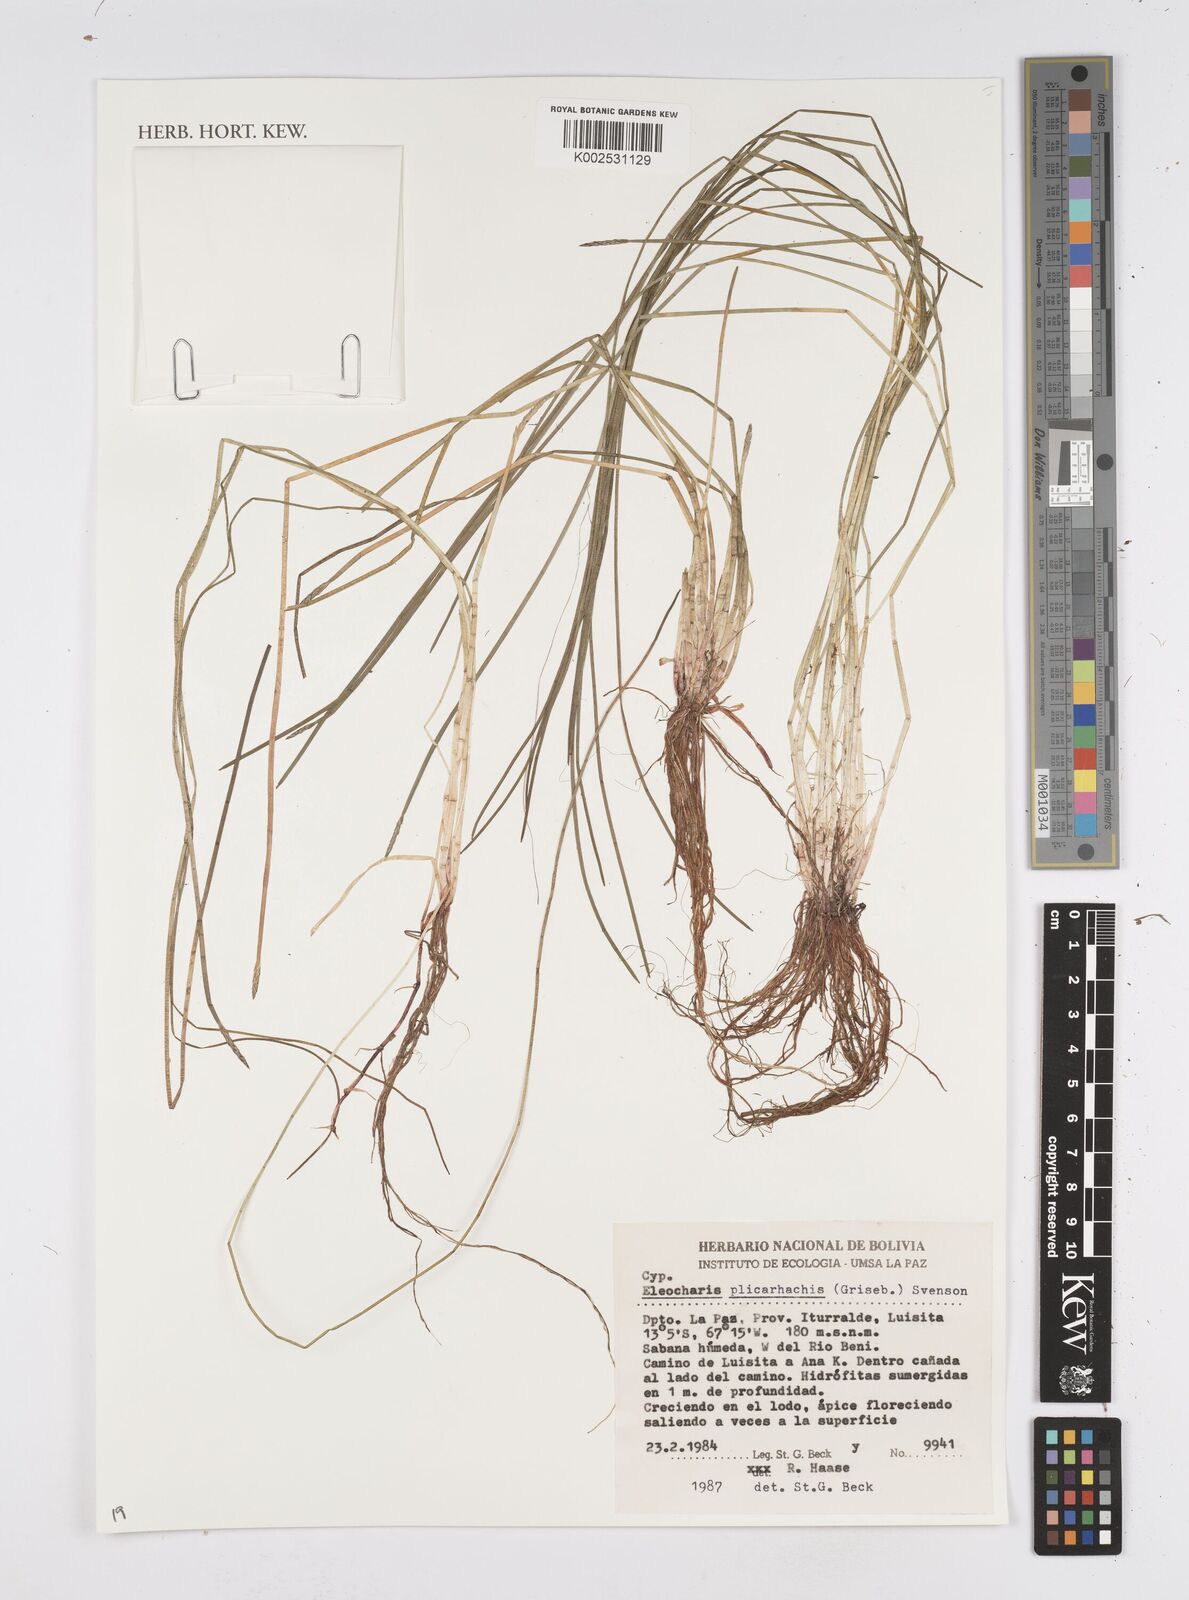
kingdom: Plantae
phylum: Tracheophyta
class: Liliopsida
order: Poales
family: Cyperaceae
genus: Eleocharis
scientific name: Eleocharis plicarhachis
